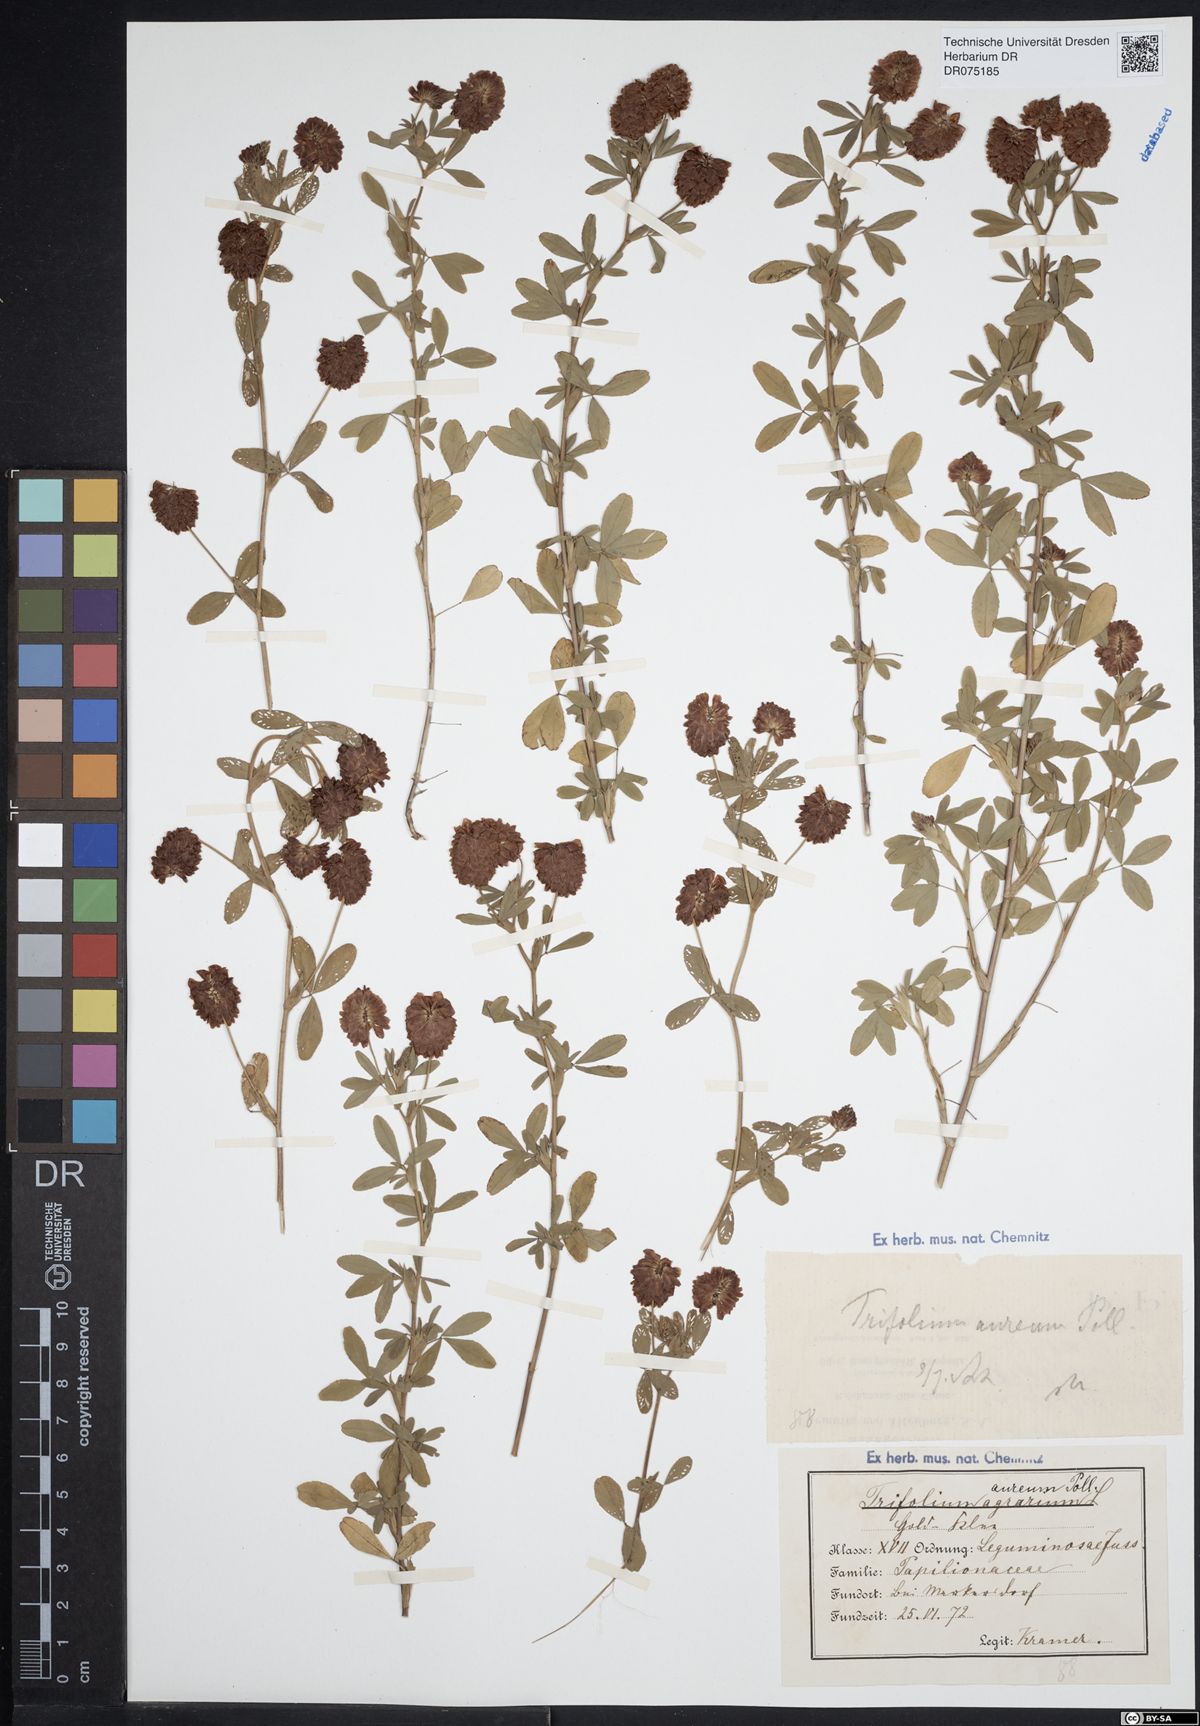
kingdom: Plantae
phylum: Tracheophyta
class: Magnoliopsida
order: Fabales
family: Fabaceae
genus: Trifolium
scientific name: Trifolium aureum
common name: Golden clover
